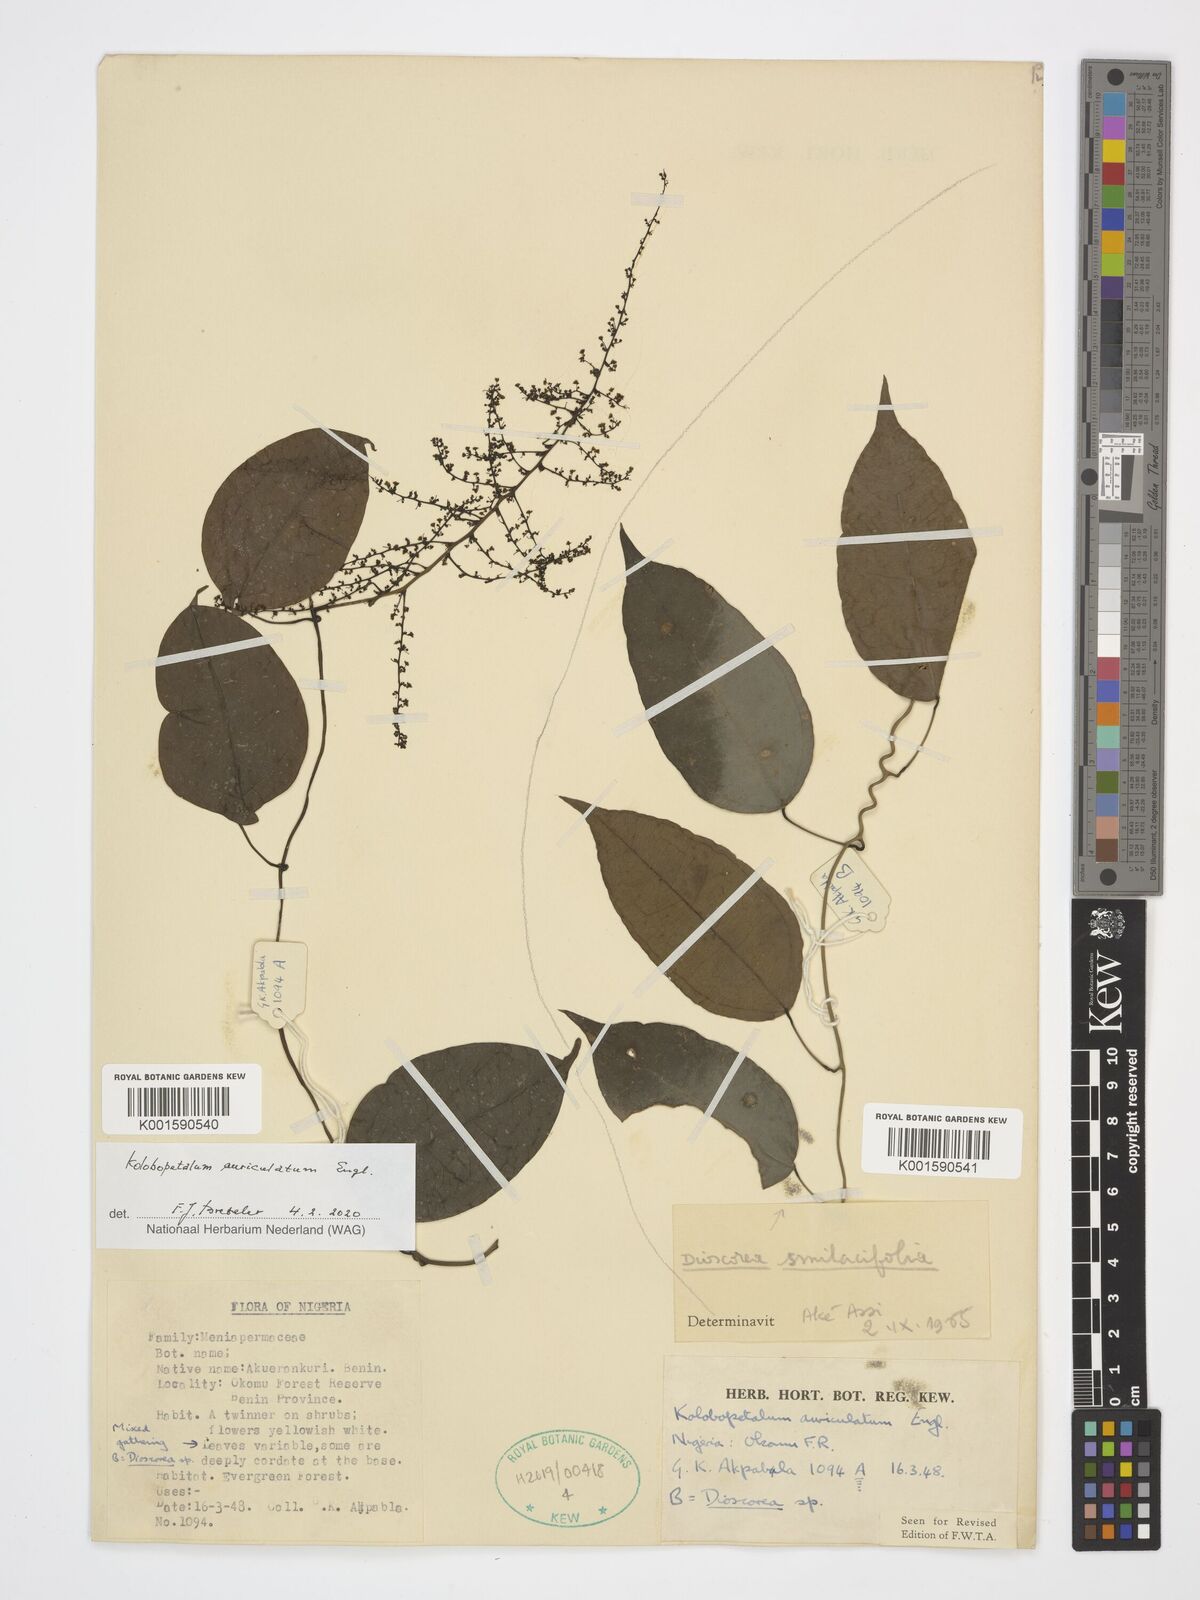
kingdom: Plantae
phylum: Tracheophyta
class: Liliopsida
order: Dioscoreales
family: Dioscoreaceae
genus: Dioscorea
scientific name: Dioscorea smilacifolia
